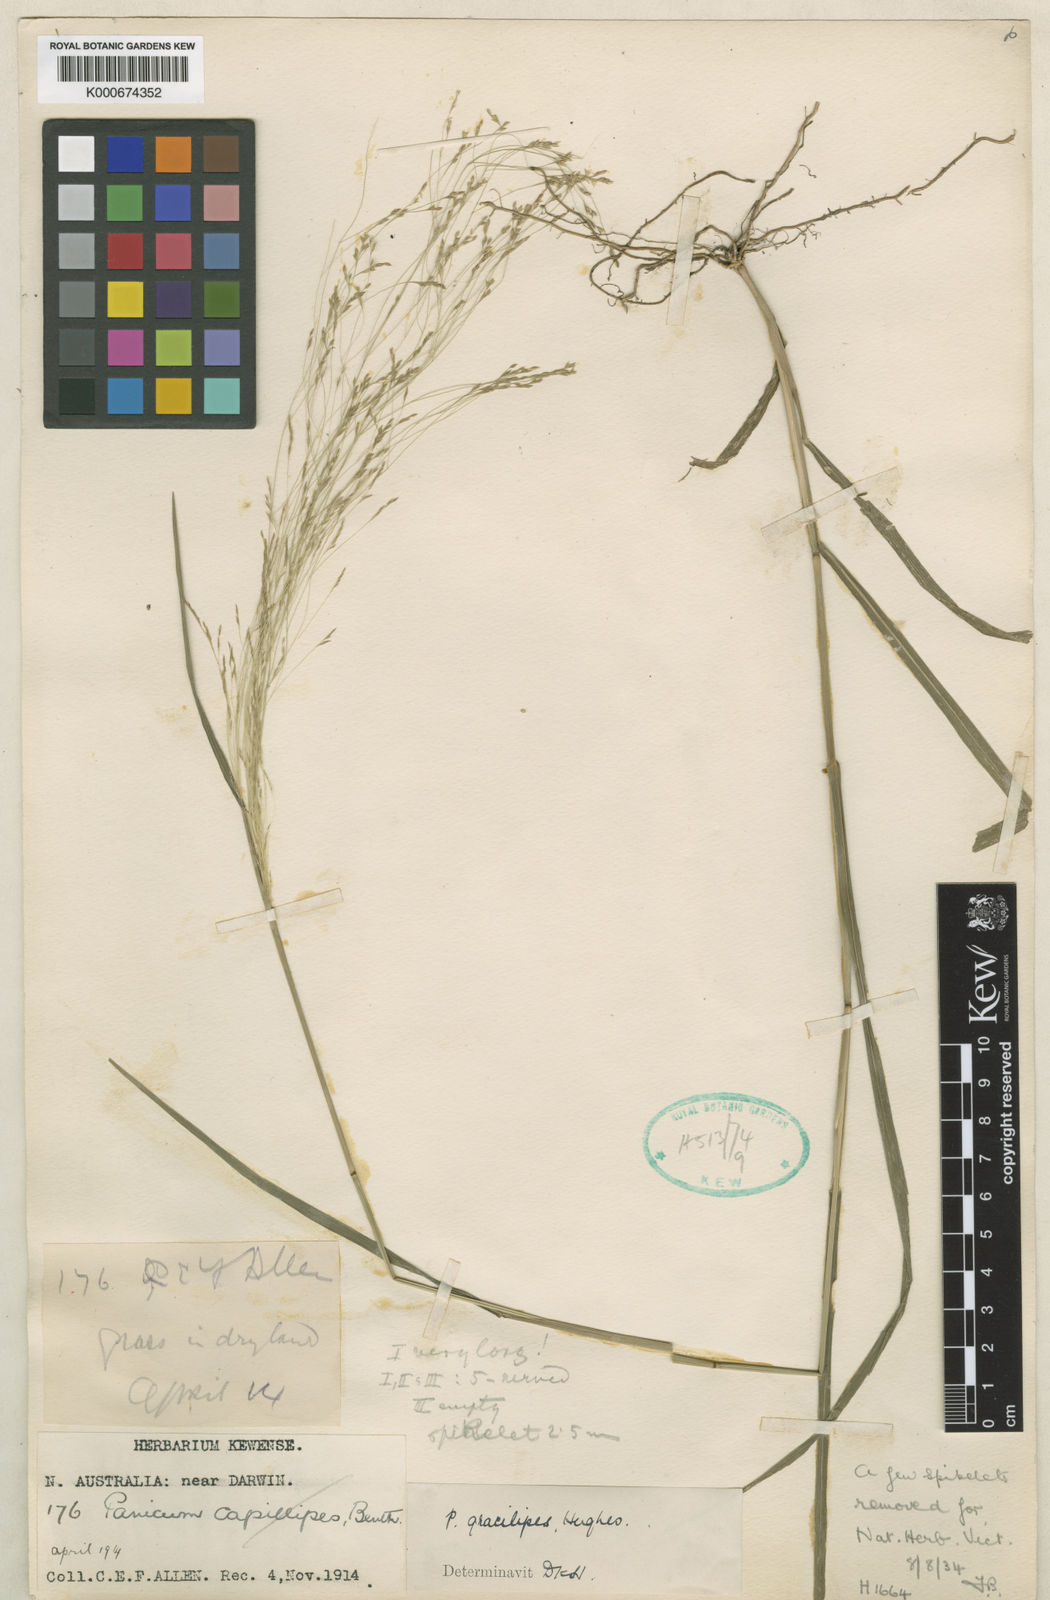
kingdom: Plantae
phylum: Tracheophyta
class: Liliopsida
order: Poales
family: Poaceae
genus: Panicum
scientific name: Panicum mindanaense
